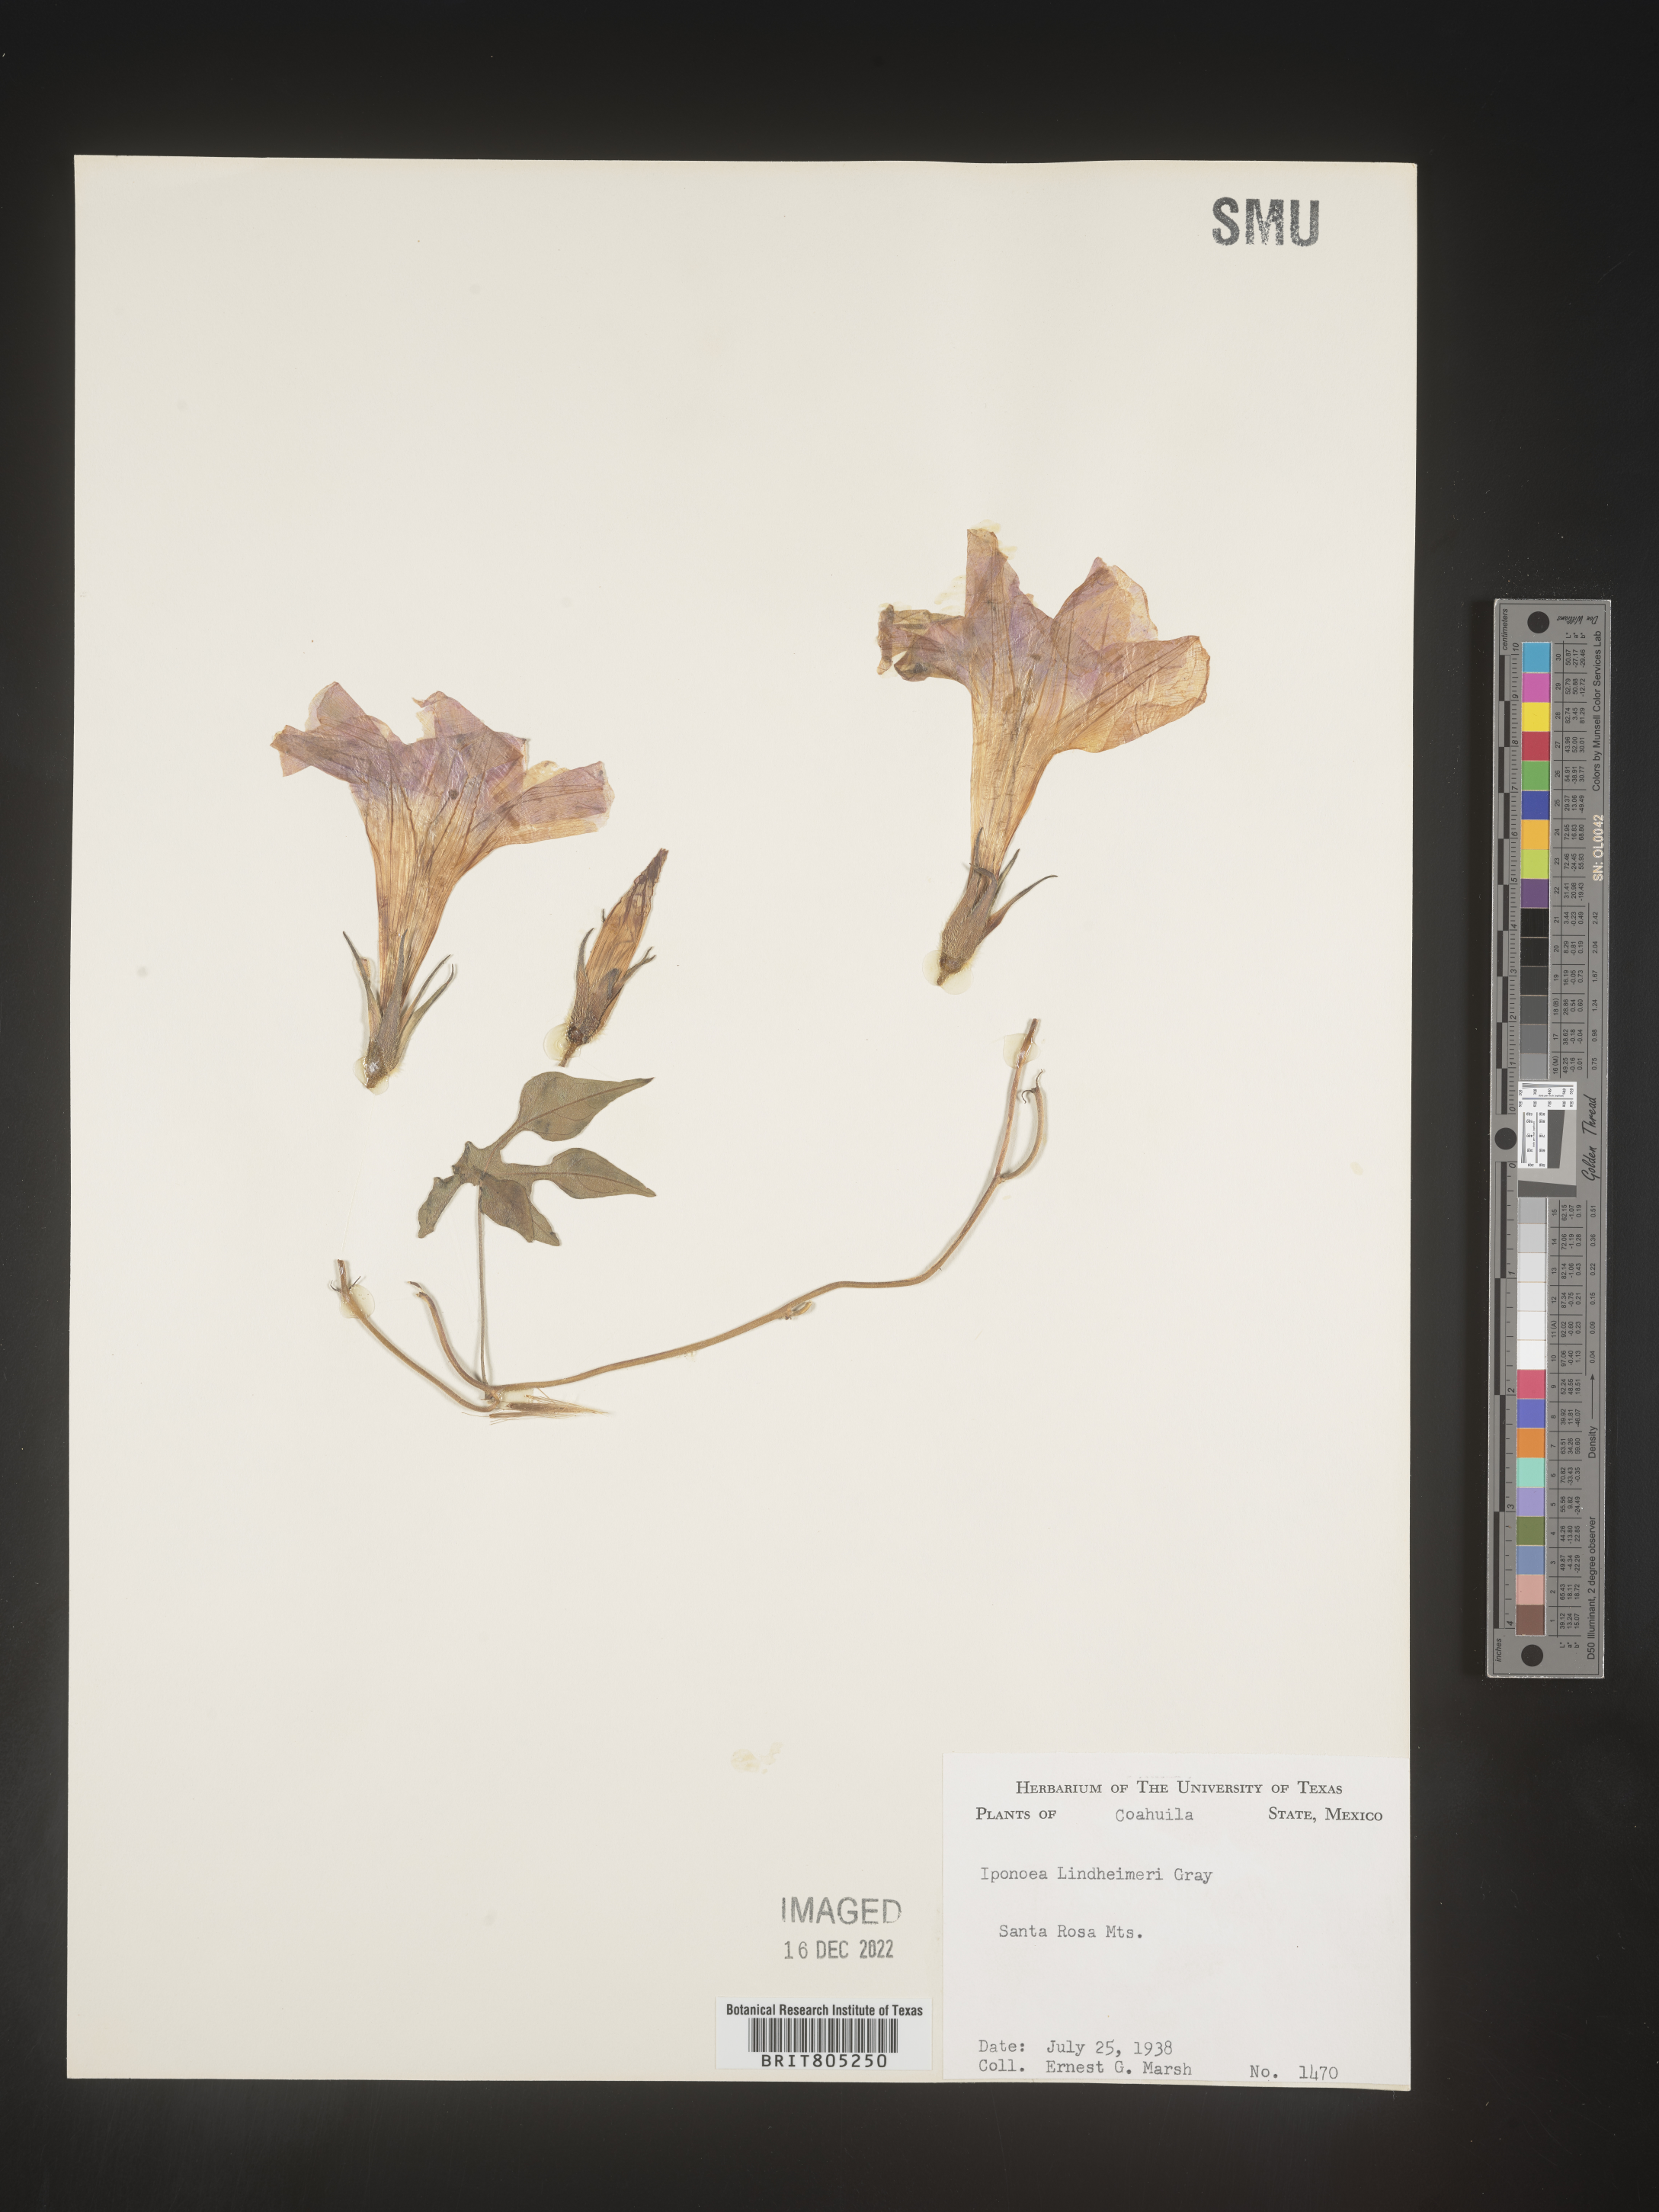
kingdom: Plantae
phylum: Tracheophyta
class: Magnoliopsida
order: Solanales
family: Convolvulaceae
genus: Ipomoea
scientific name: Ipomoea
